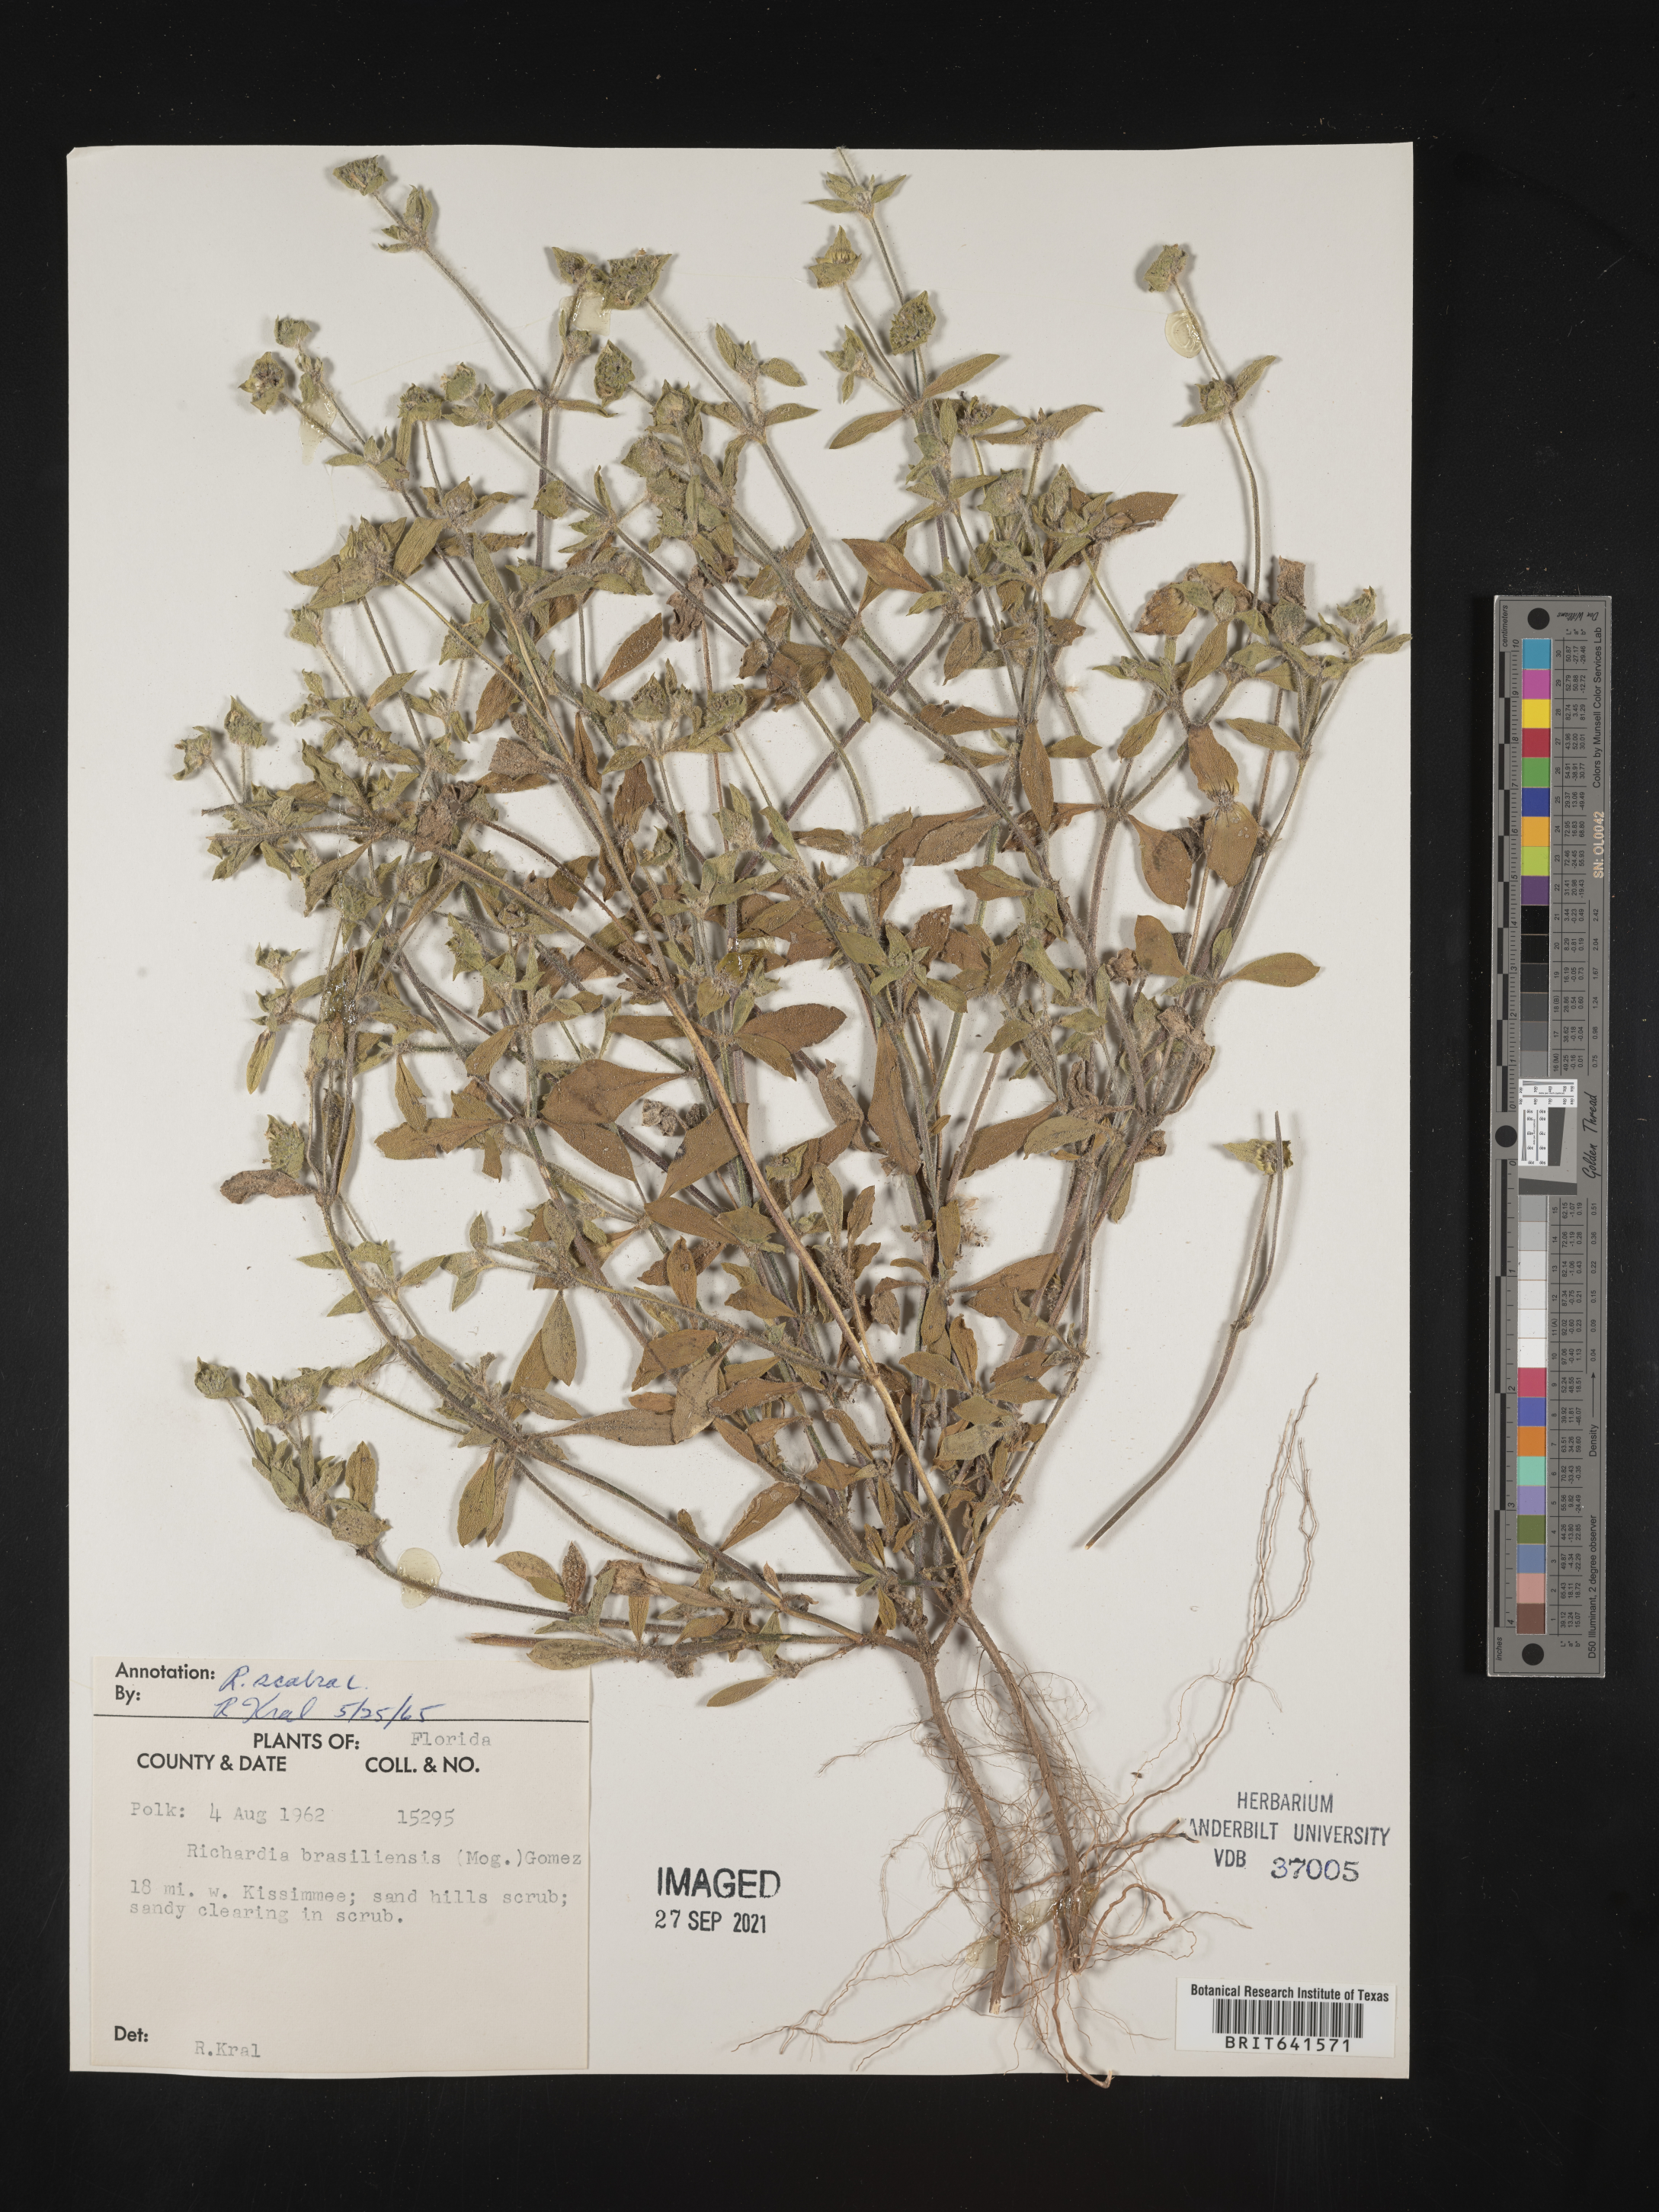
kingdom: Plantae
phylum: Tracheophyta
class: Magnoliopsida
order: Gentianales
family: Rubiaceae
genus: Richardia
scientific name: Richardia scabra
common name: Rough mexican clover
